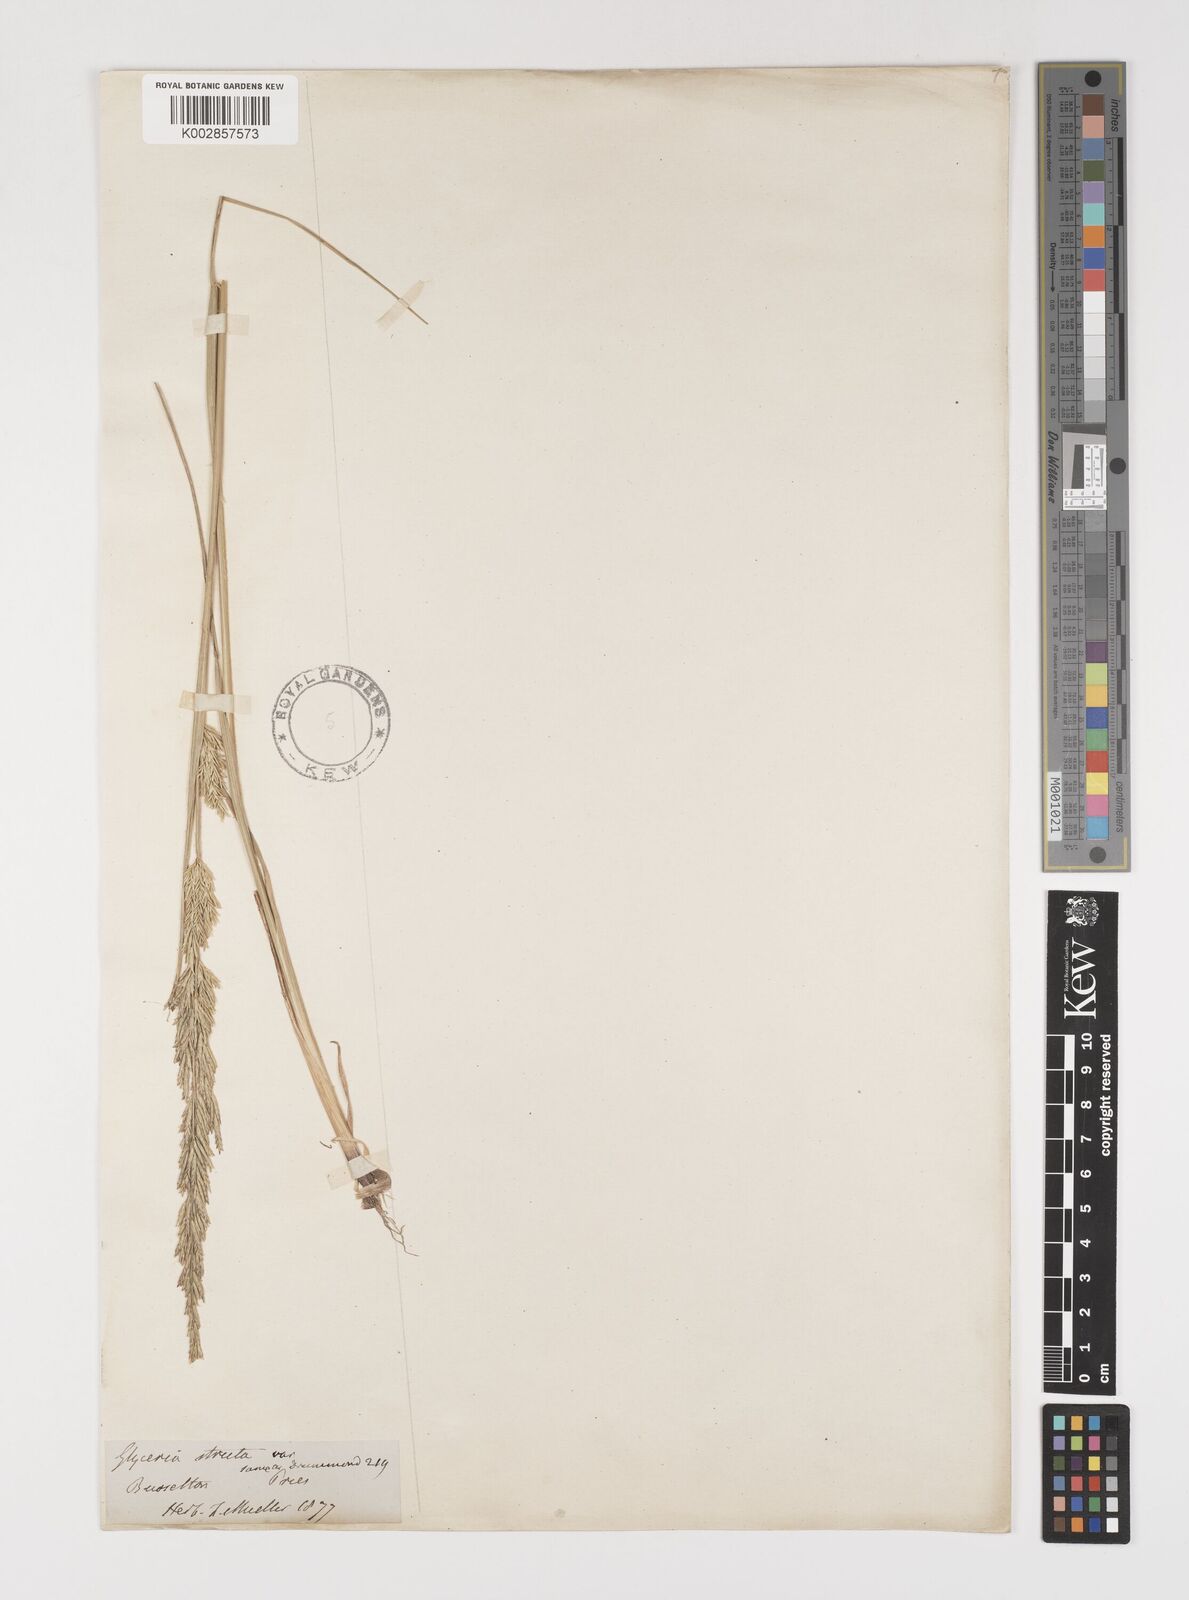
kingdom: Plantae
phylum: Tracheophyta
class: Liliopsida
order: Poales
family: Poaceae
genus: Puccinellia
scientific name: Puccinellia stricta
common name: Australian saltmarsh grass
